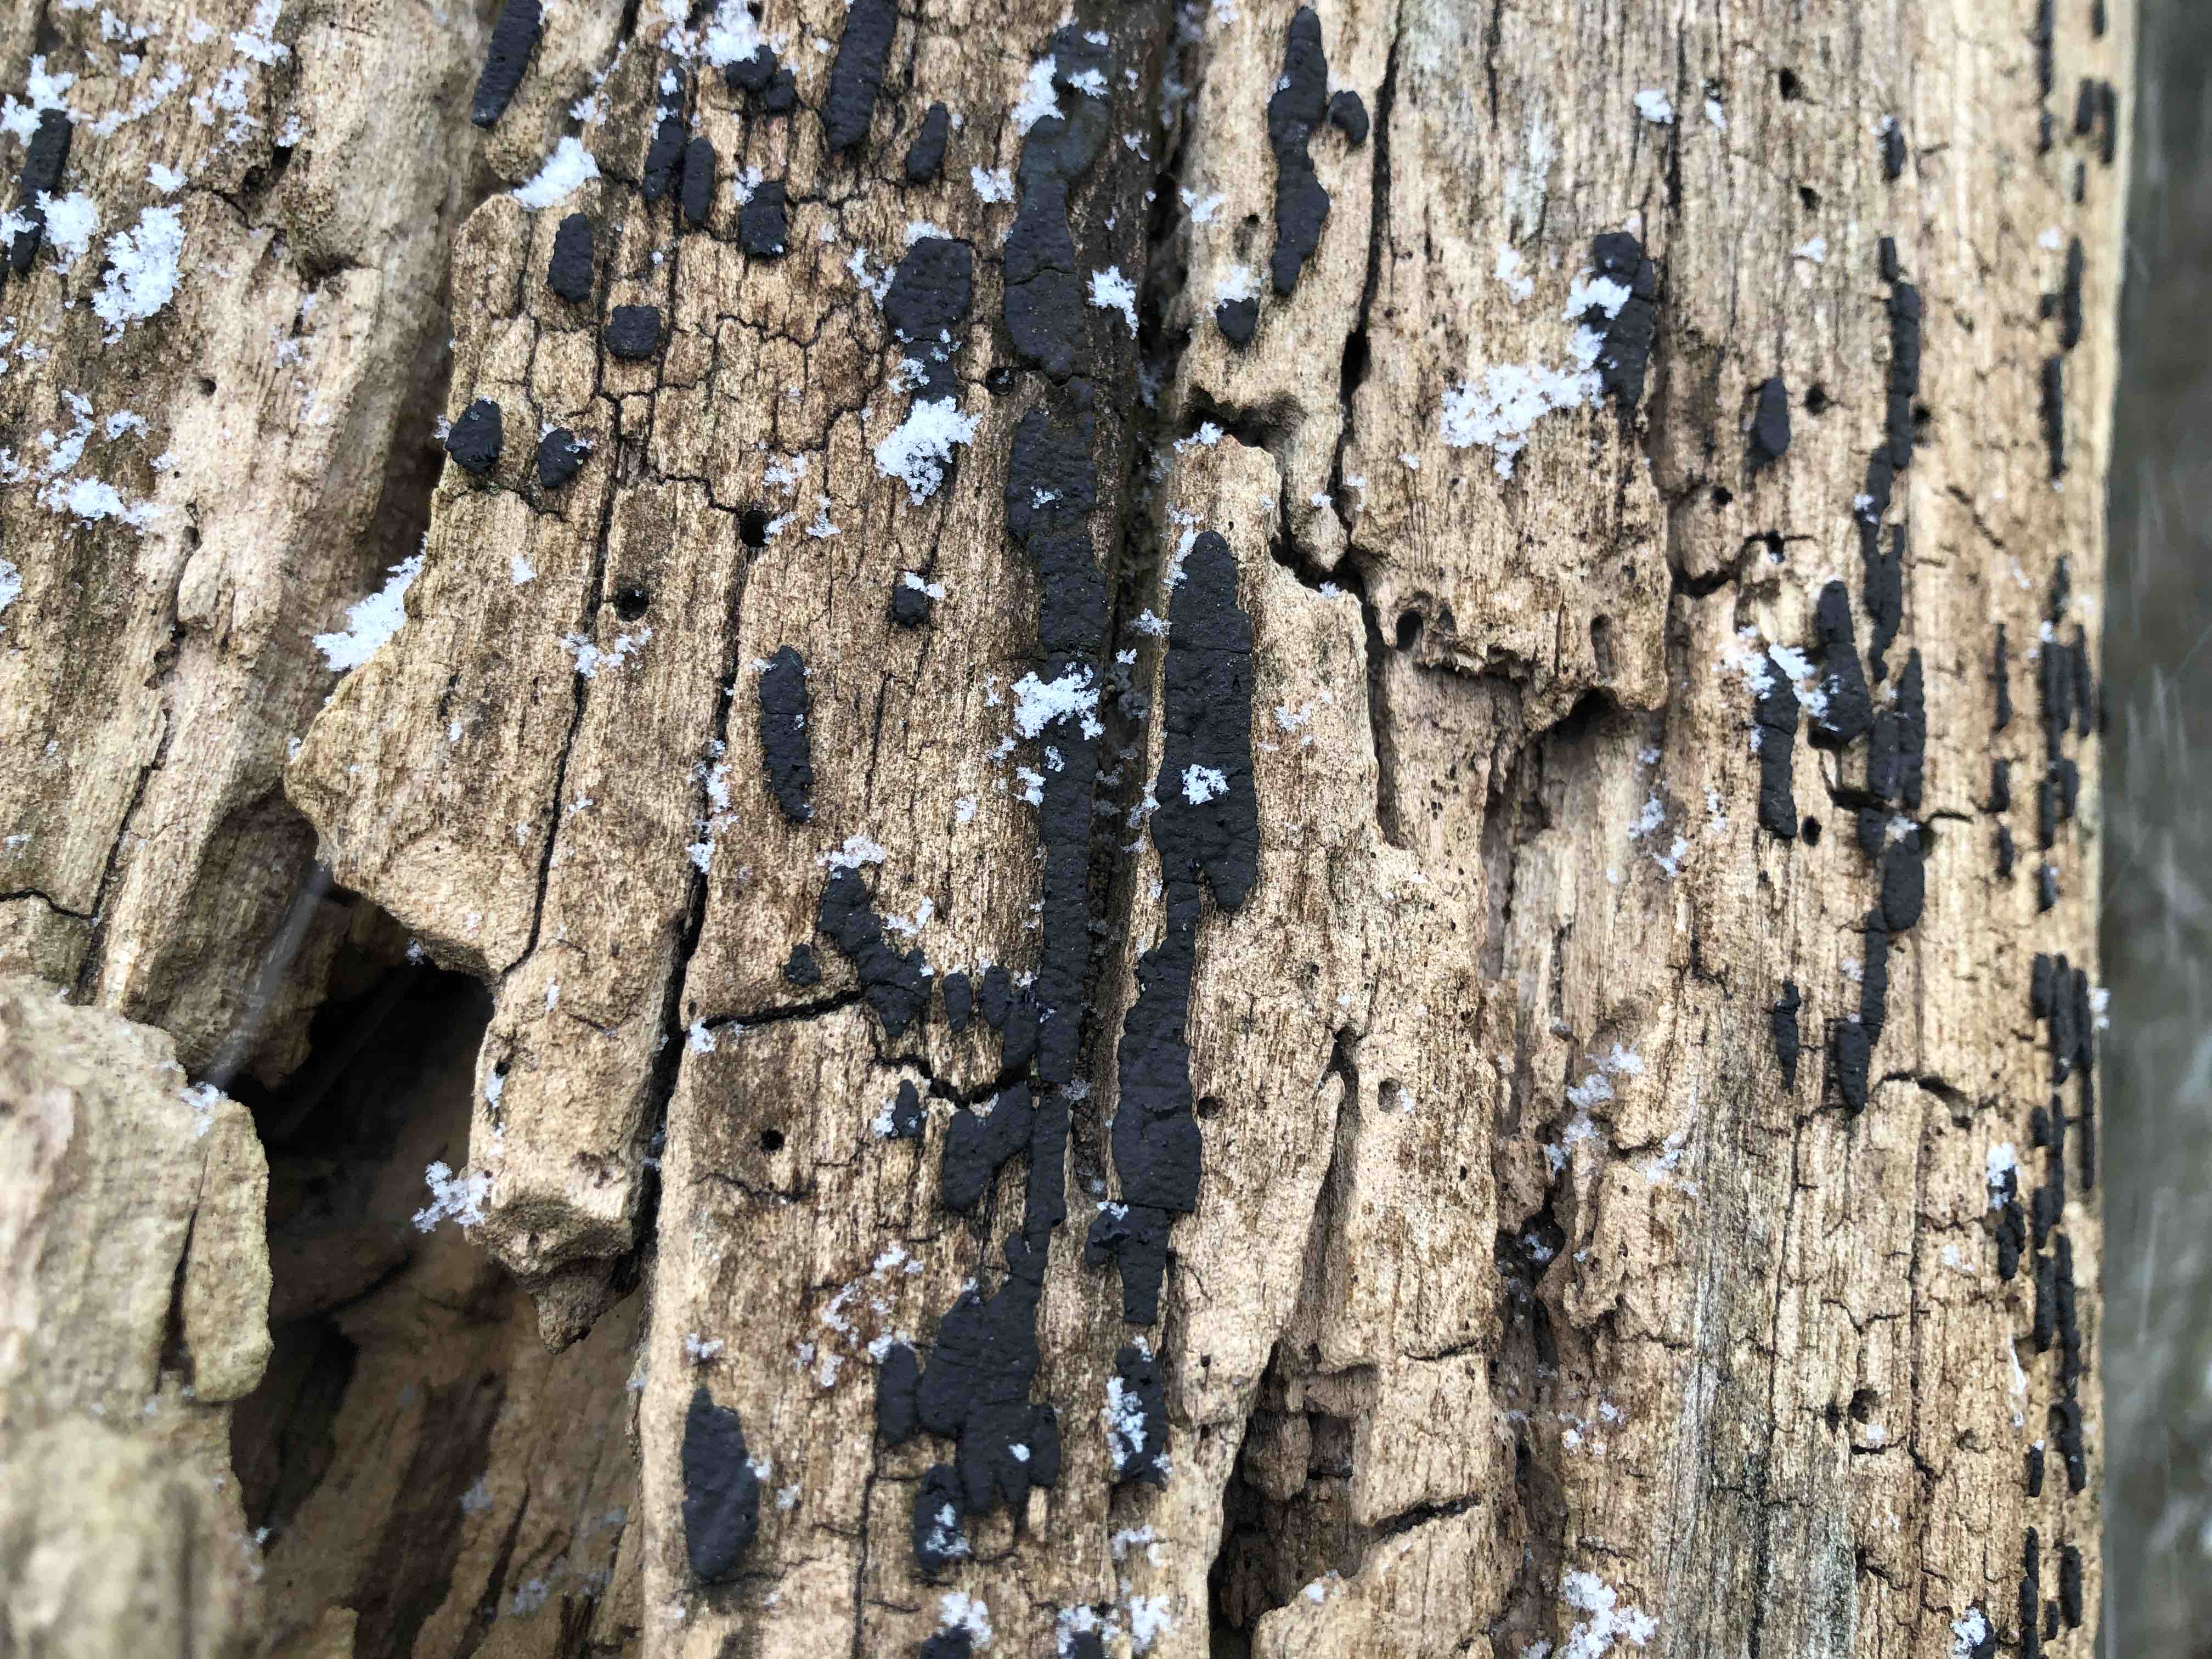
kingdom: Fungi
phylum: Ascomycota
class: Sordariomycetes
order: Xylariales
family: Xylariaceae
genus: Nemania
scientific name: Nemania serpens
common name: almindelig kuldyne
